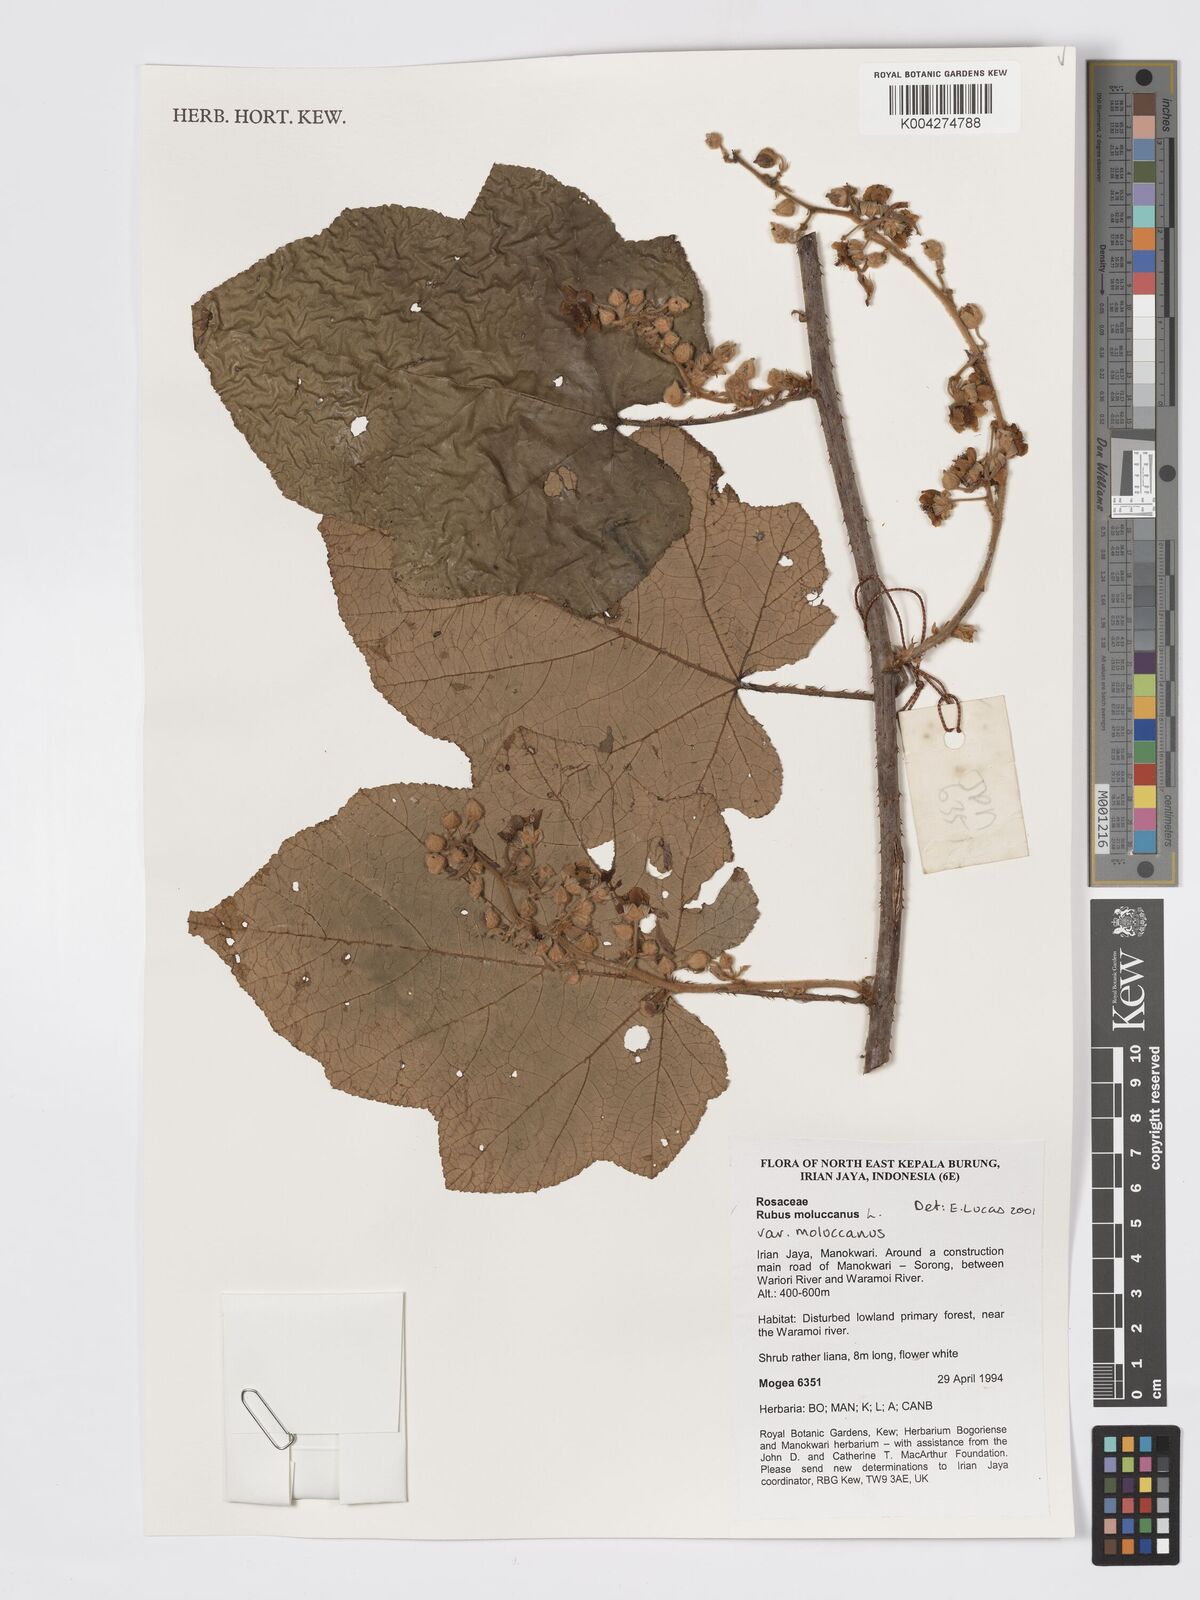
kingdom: Plantae
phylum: Tracheophyta
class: Magnoliopsida
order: Rosales
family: Rosaceae
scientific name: Rosaceae
